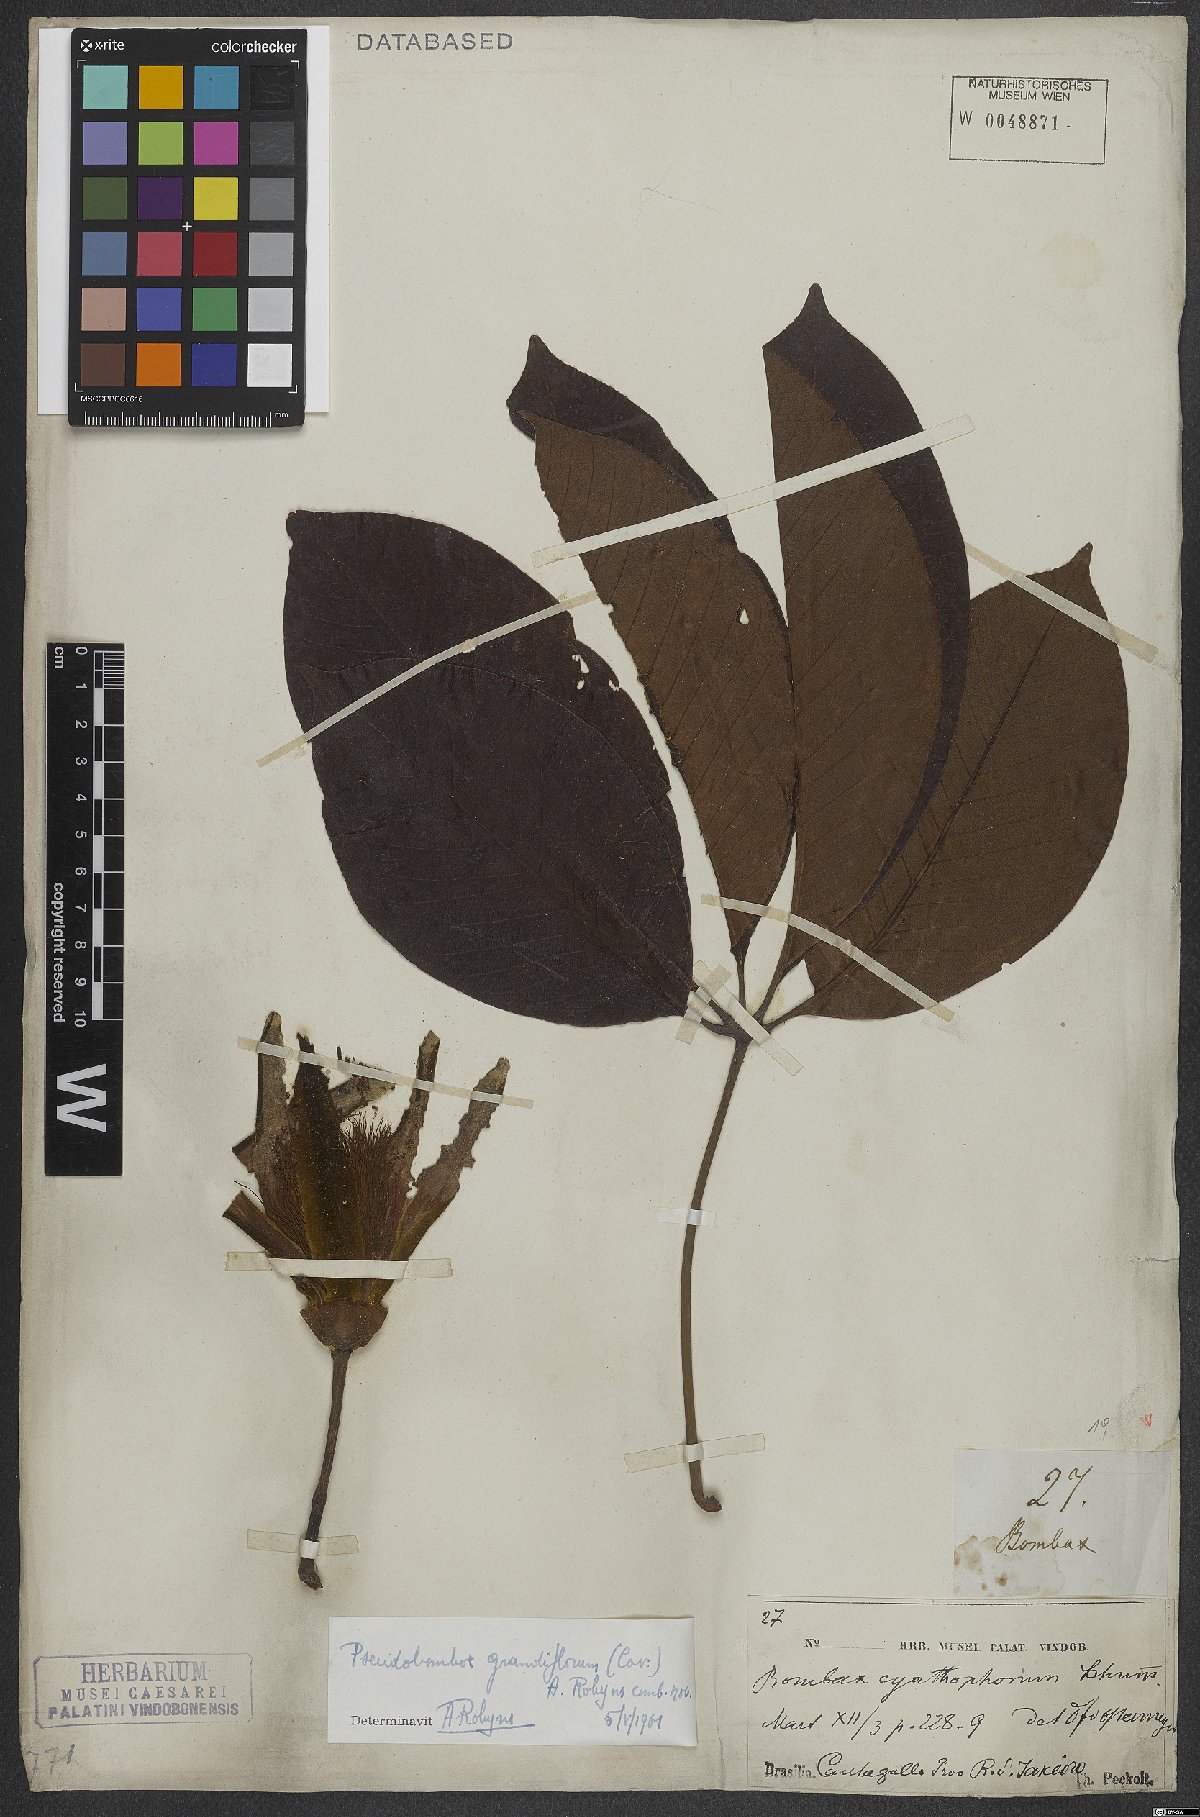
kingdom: Plantae
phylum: Tracheophyta
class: Magnoliopsida
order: Malvales
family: Malvaceae
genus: Pseudobombax
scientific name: Pseudobombax grandiflorum
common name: Brazilian shaving-brush-tree
